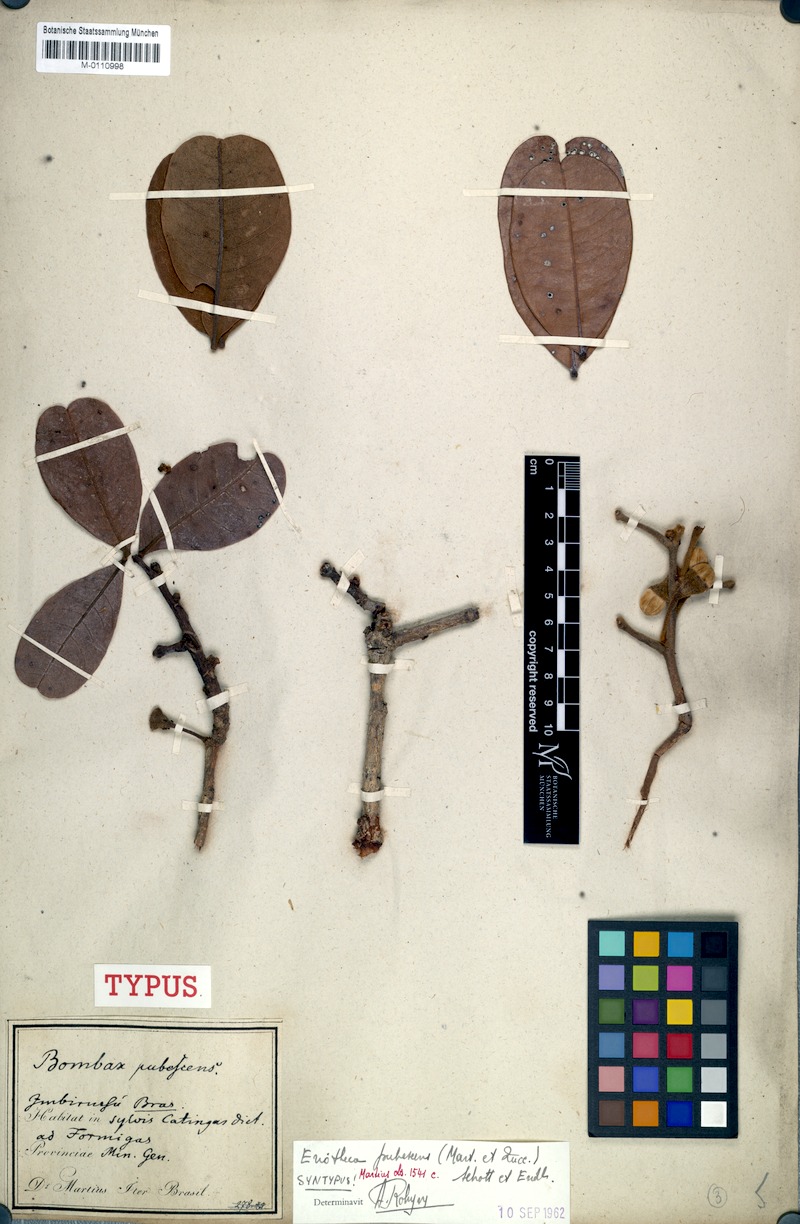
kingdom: Plantae
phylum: Tracheophyta
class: Magnoliopsida
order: Malvales
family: Malvaceae
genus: Eriotheca
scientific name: Eriotheca pubescens
